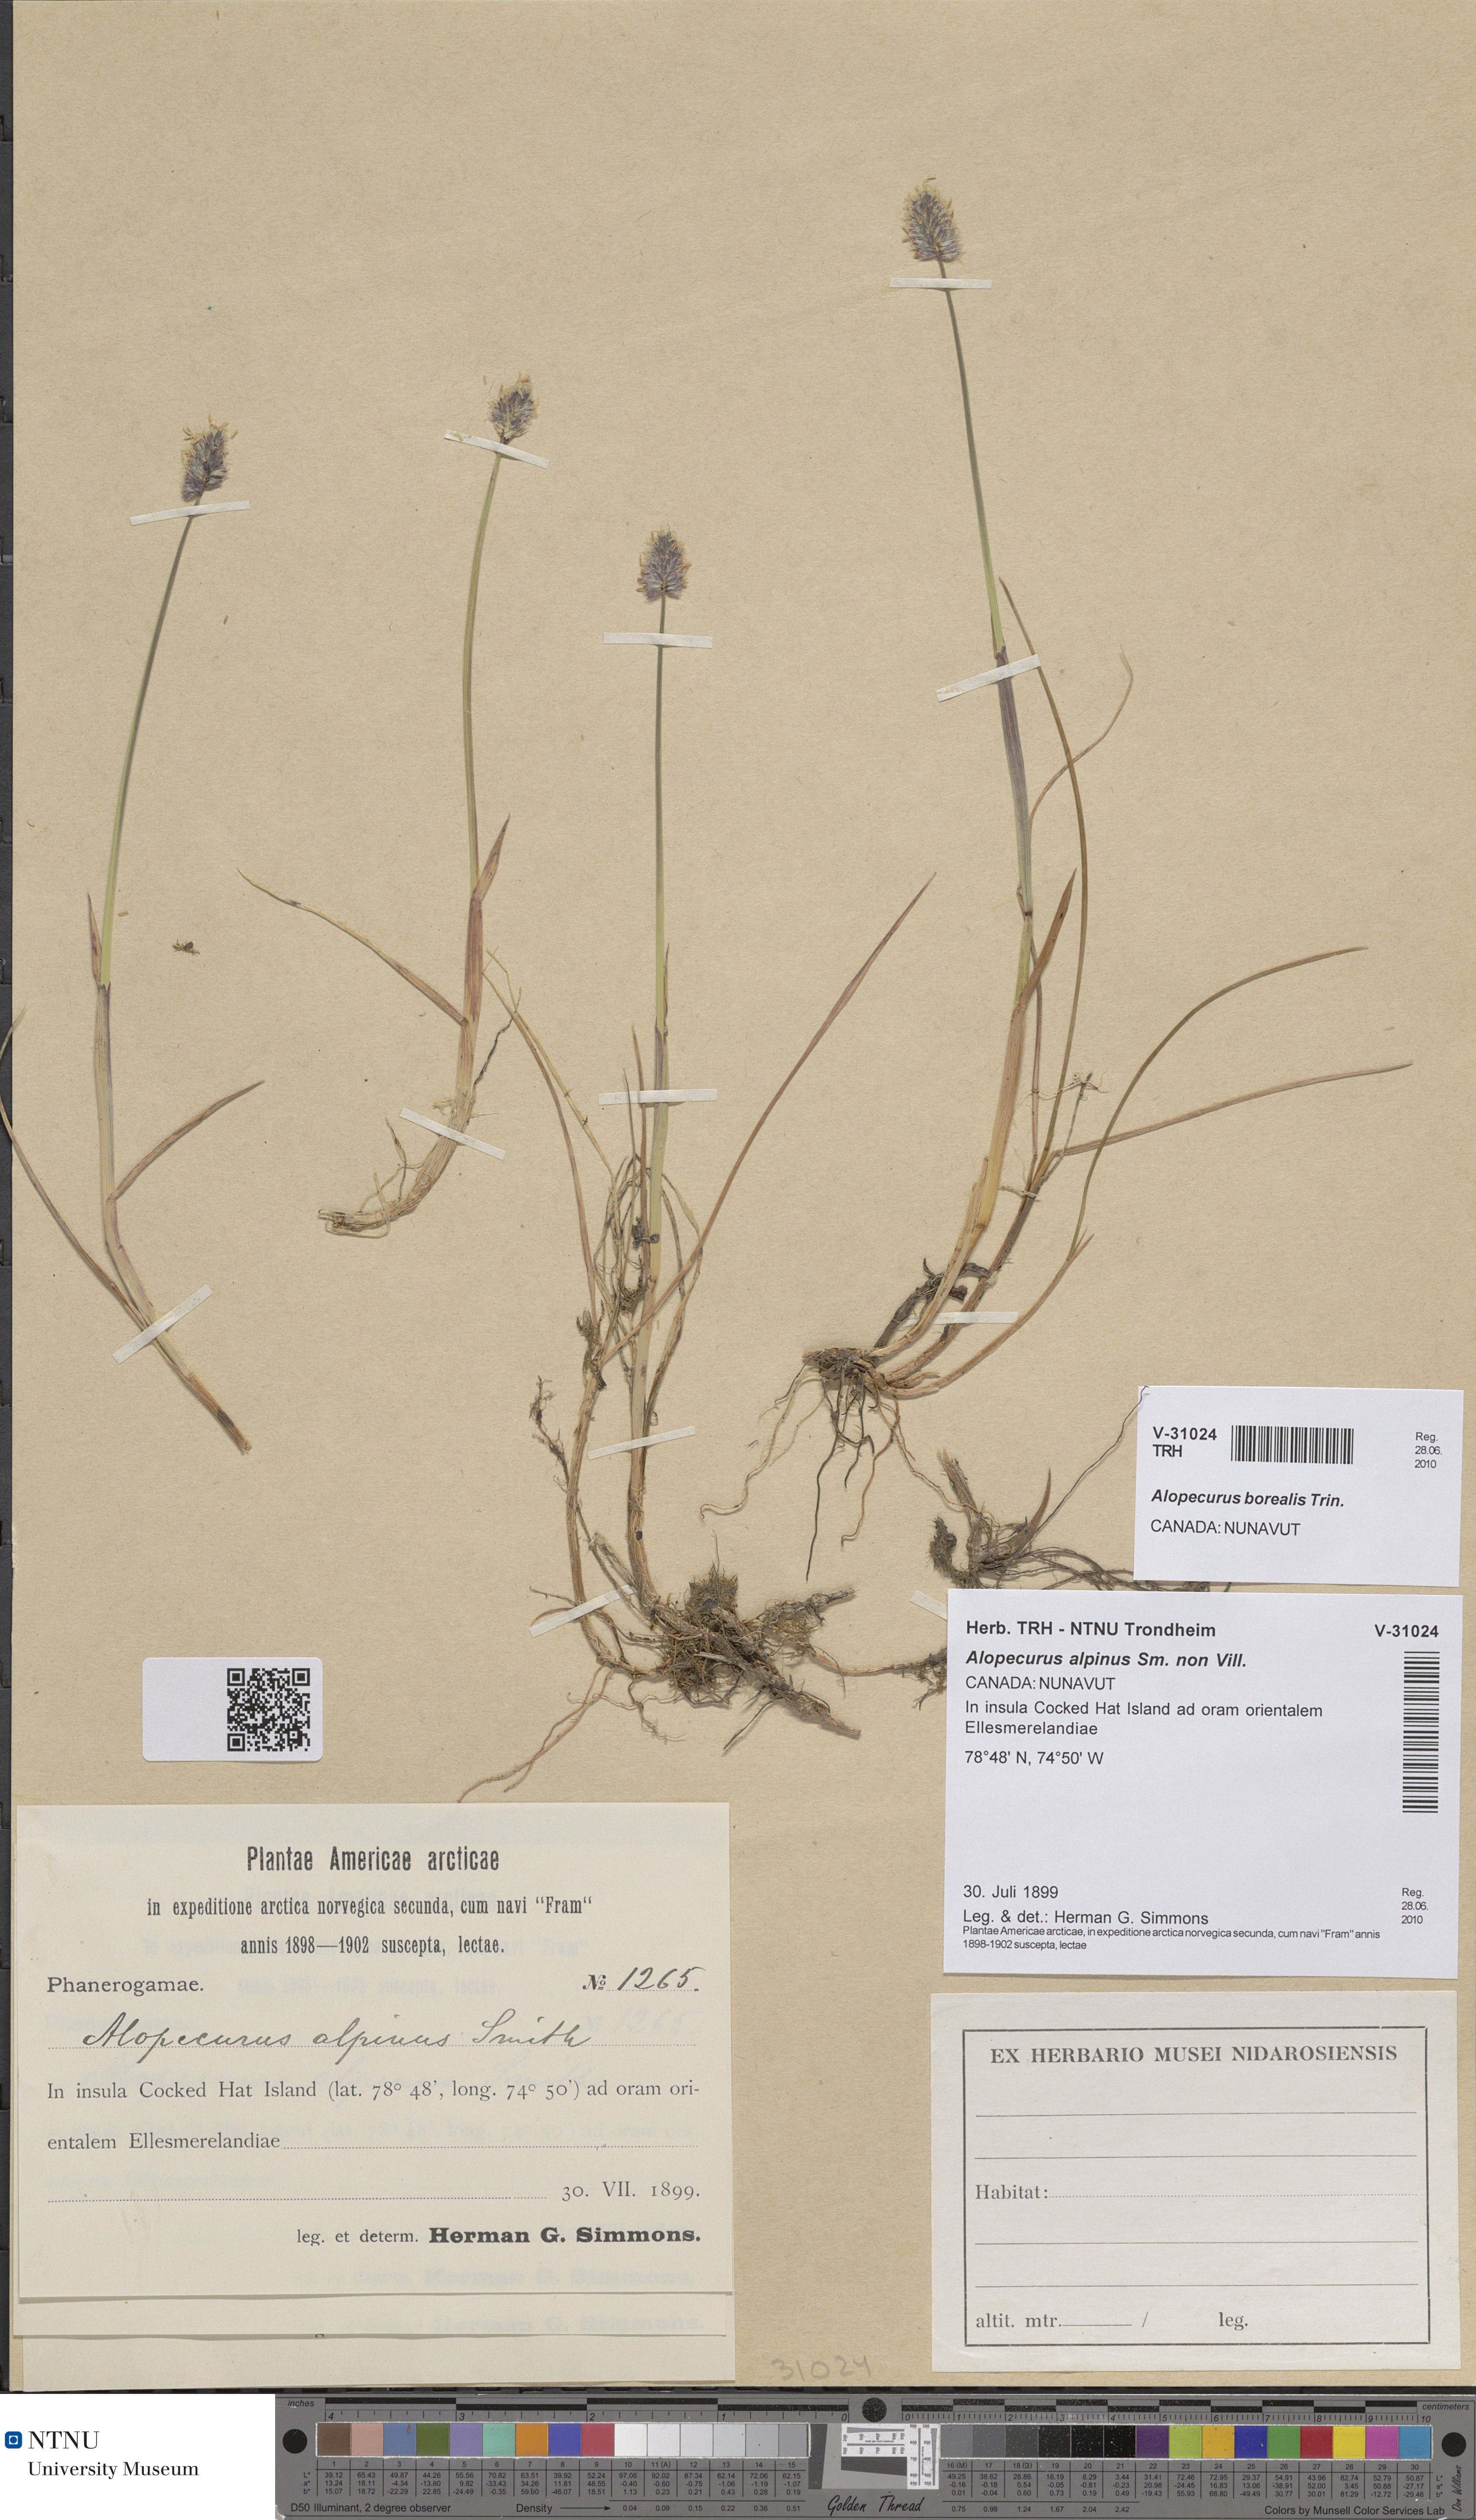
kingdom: Plantae
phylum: Tracheophyta
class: Liliopsida
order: Poales
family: Poaceae
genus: Alopecurus
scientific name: Alopecurus magellanicus
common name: Alpine foxtail
